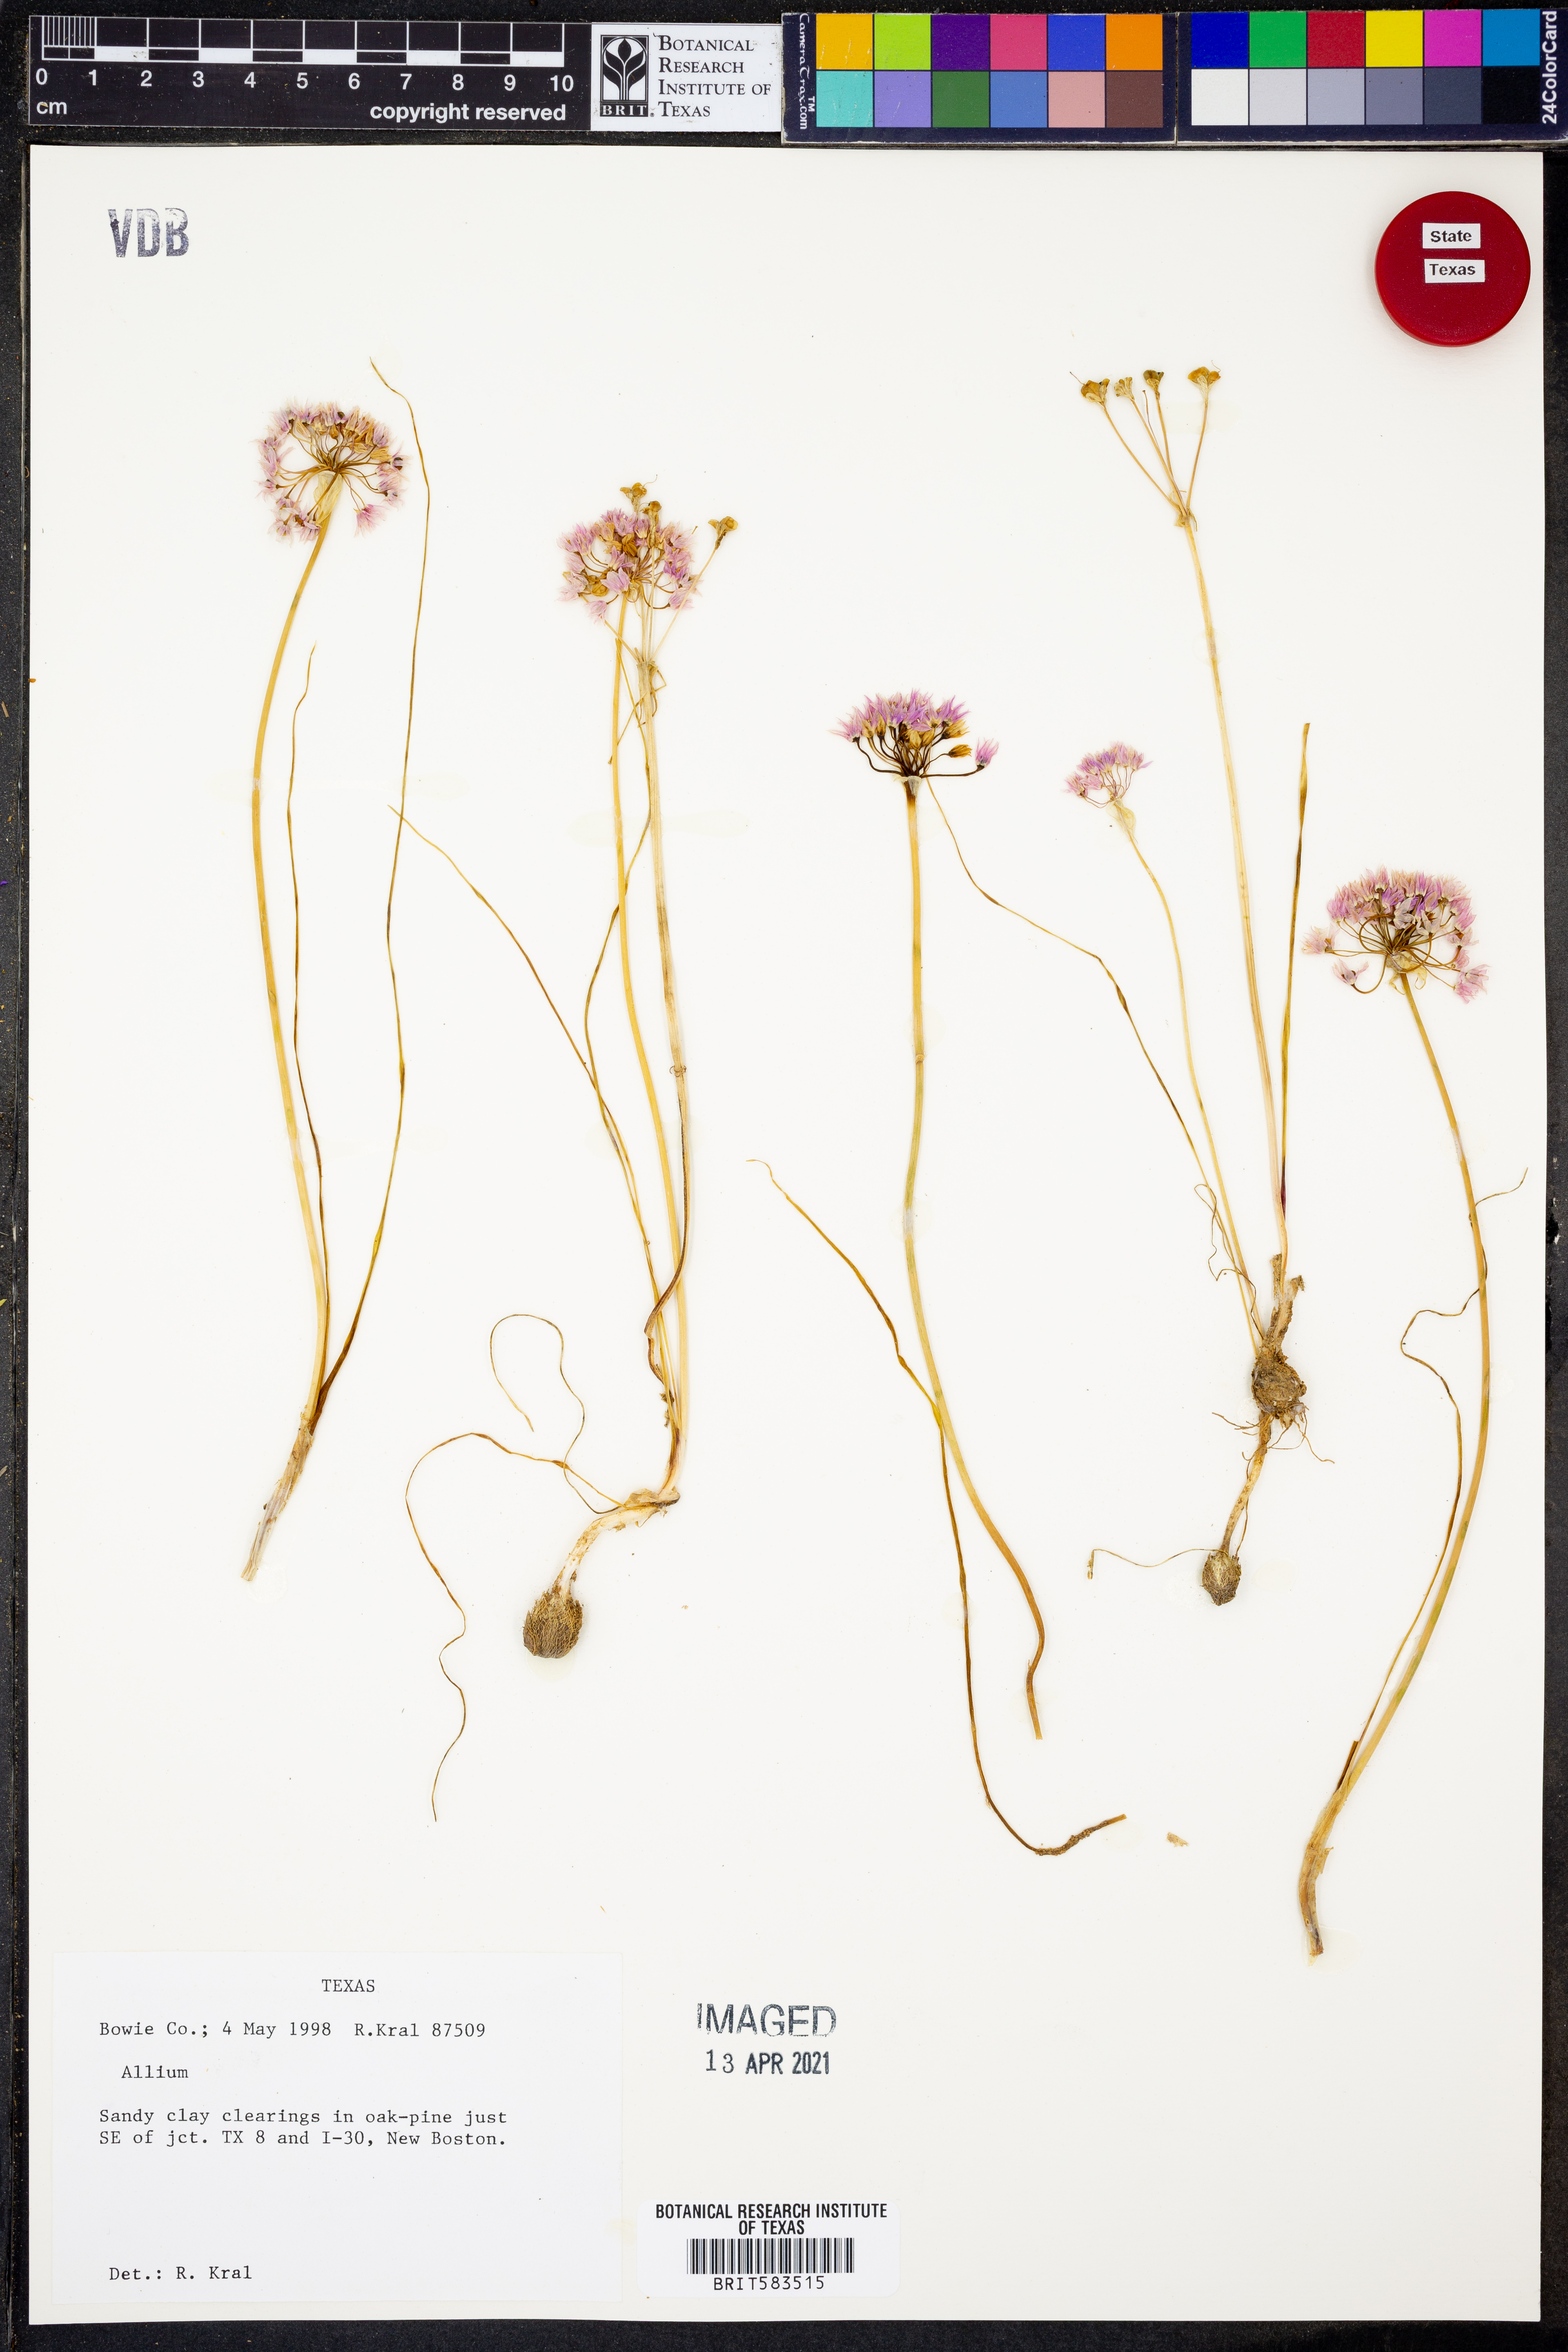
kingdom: Plantae
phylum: Tracheophyta
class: Liliopsida
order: Asparagales
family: Amaryllidaceae
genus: Allium
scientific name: Allium
